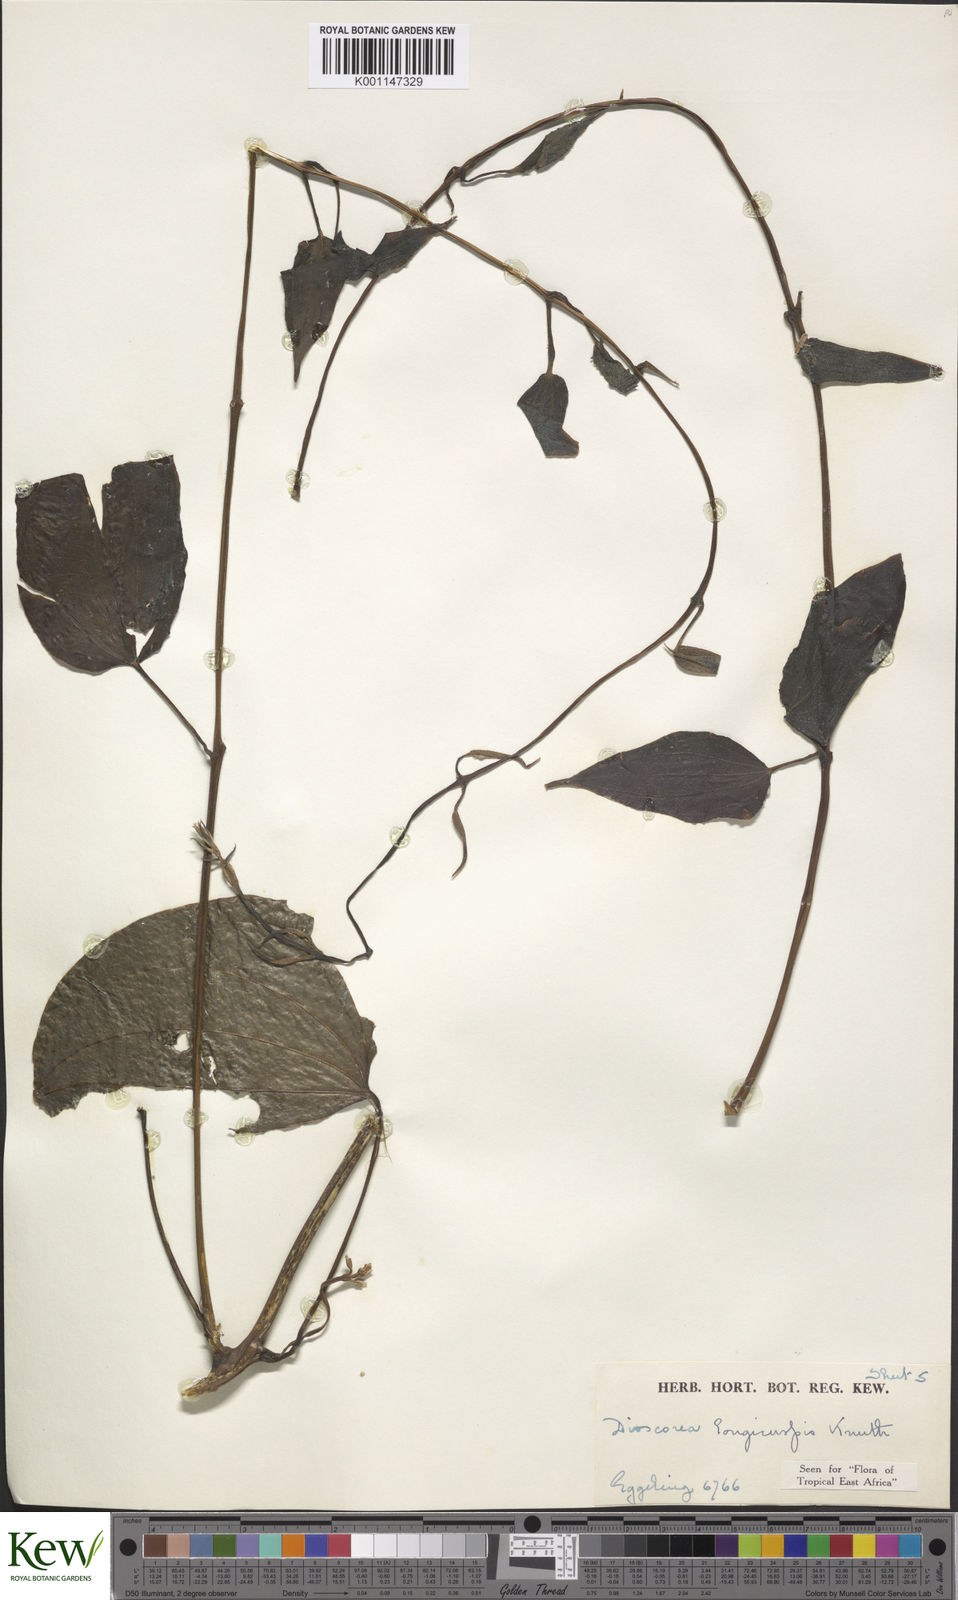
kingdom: Plantae
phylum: Tracheophyta
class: Liliopsida
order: Dioscoreales
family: Dioscoreaceae
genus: Dioscorea
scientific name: Dioscorea longicuspis
